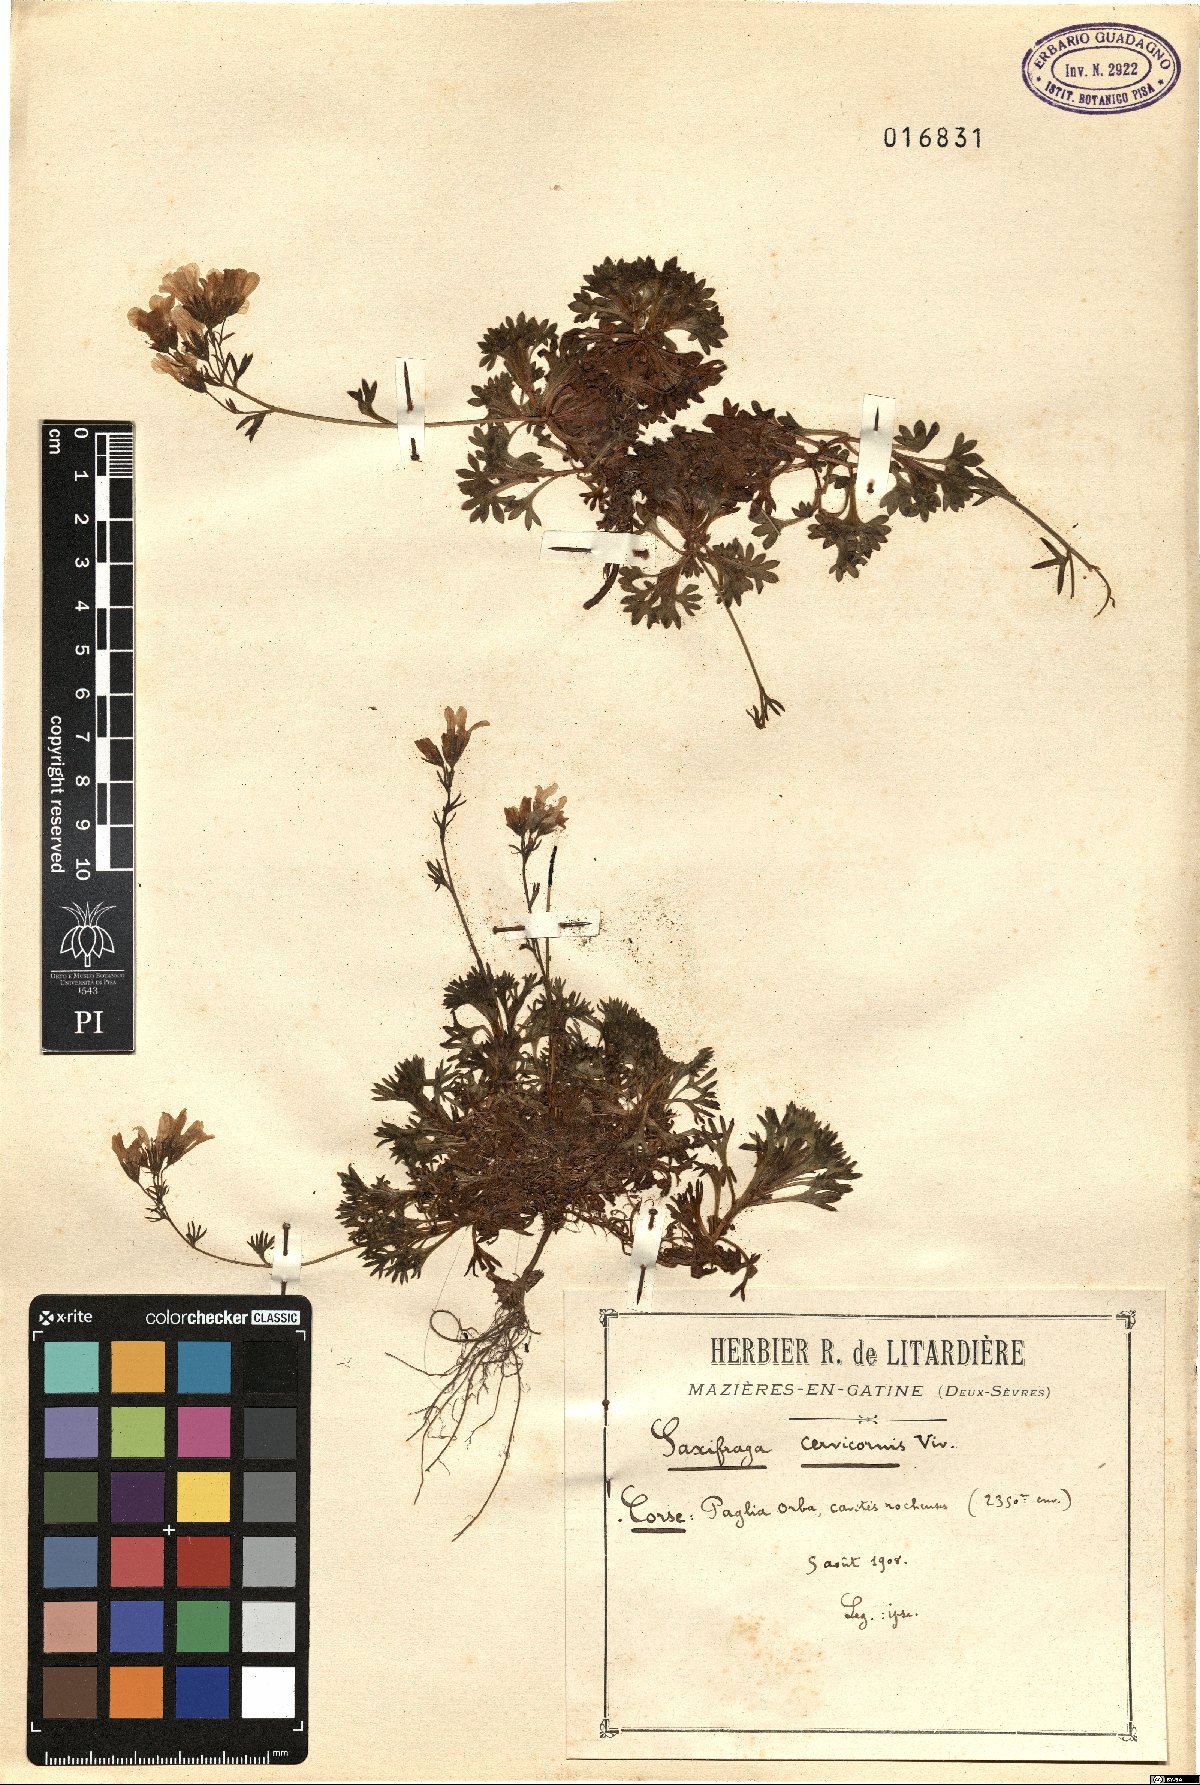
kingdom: Plantae
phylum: Tracheophyta
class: Magnoliopsida
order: Saxifragales
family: Saxifragaceae
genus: Saxifraga
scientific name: Saxifraga pedemontana
